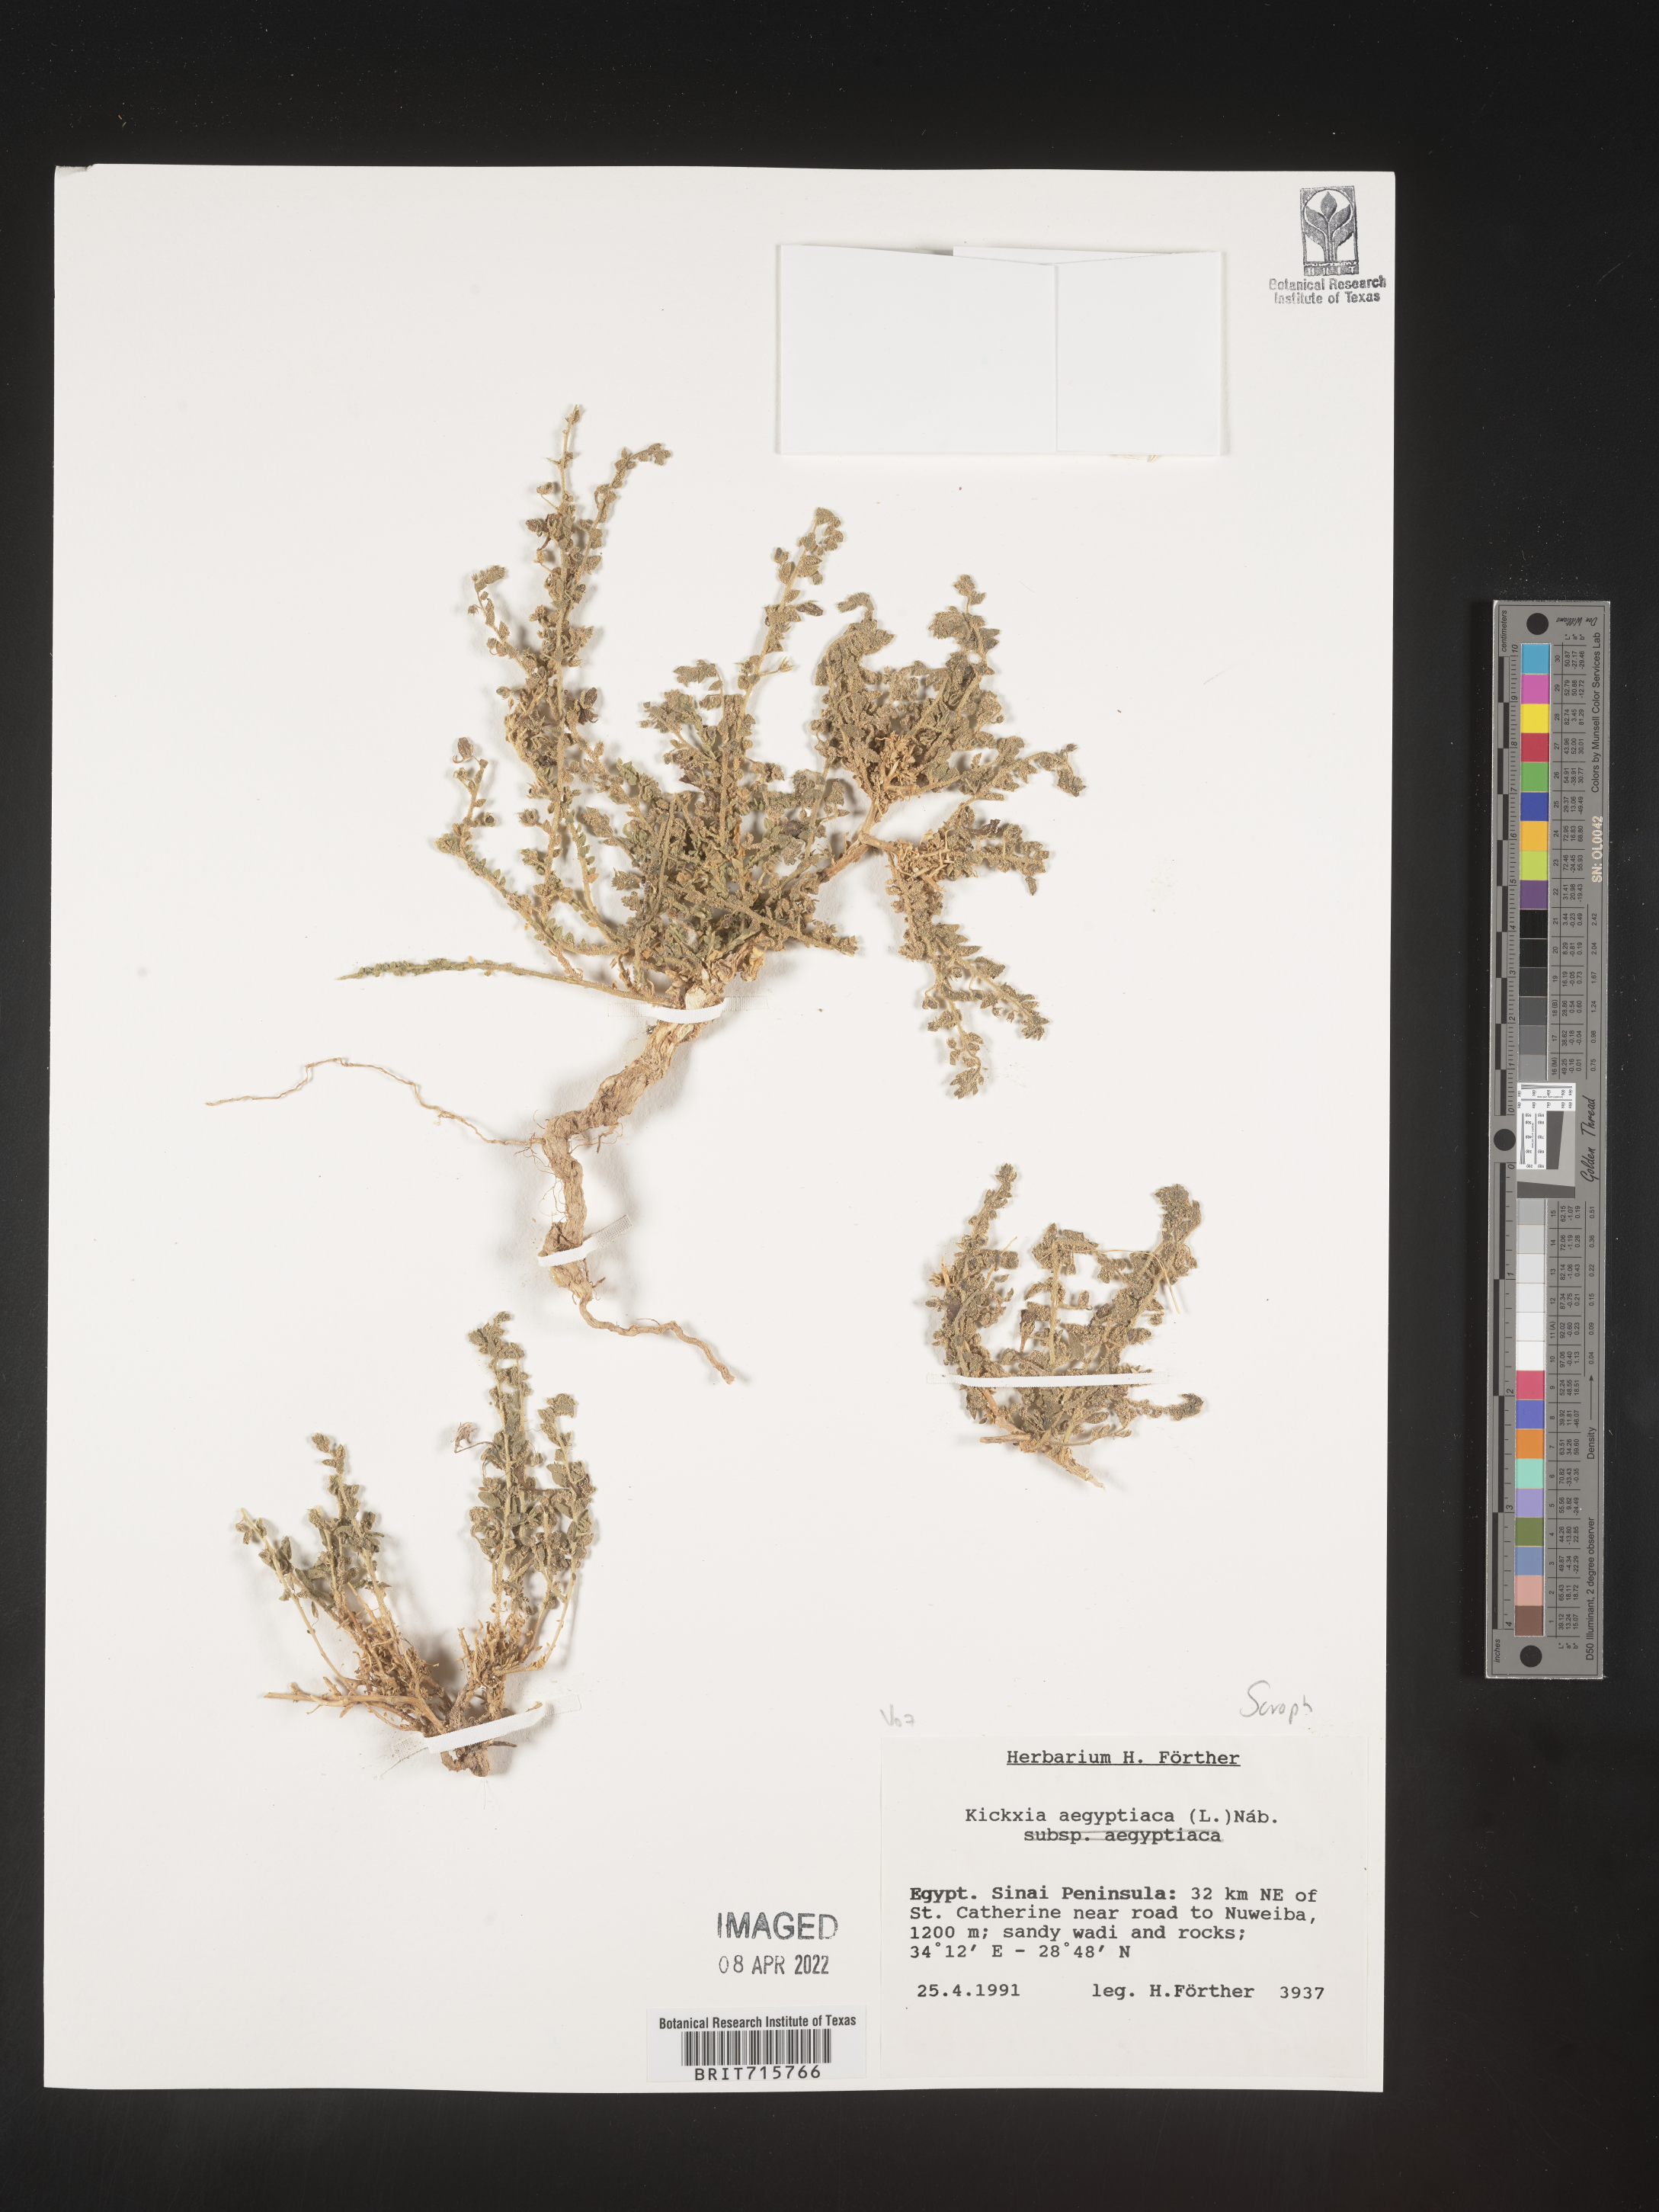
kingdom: Plantae
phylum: Tracheophyta
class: Magnoliopsida
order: Lamiales
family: Plantaginaceae
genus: Kickxia
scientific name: Kickxia
